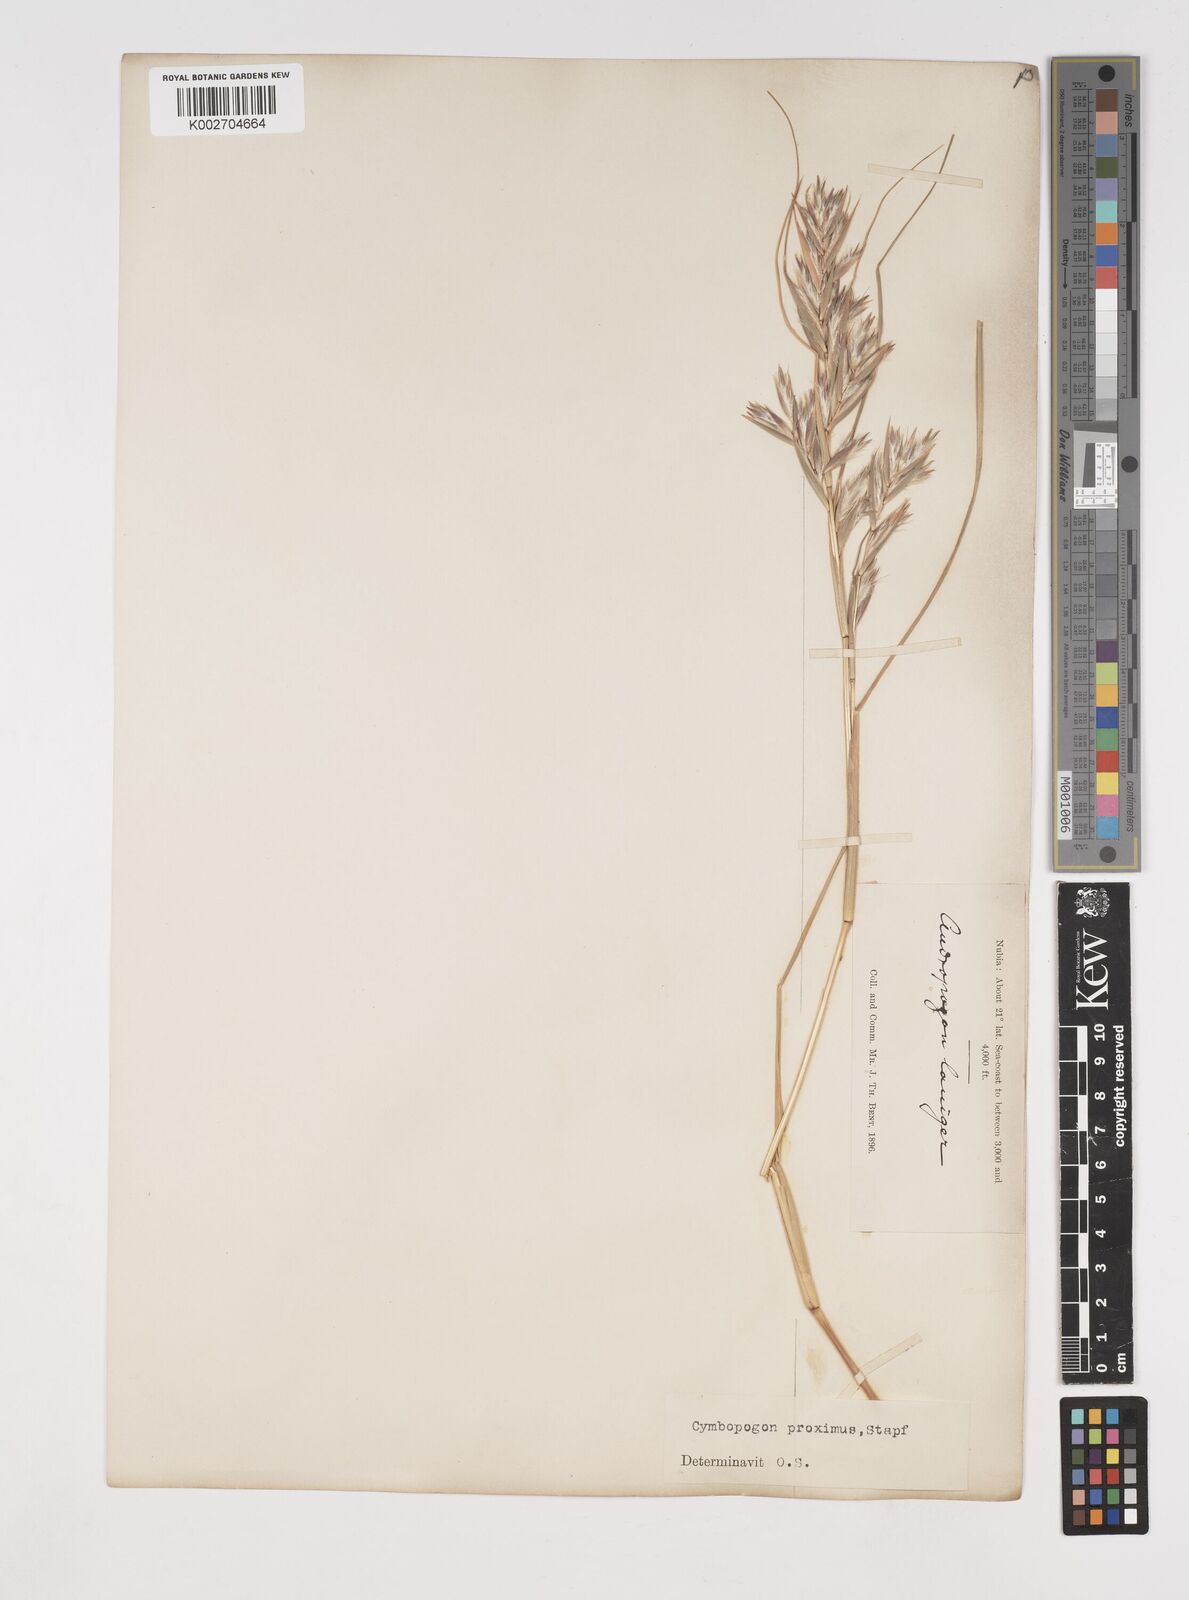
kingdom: Plantae
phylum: Tracheophyta
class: Liliopsida
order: Poales
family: Poaceae
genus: Cymbopogon
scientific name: Cymbopogon schoenanthus
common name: Geranium grass
